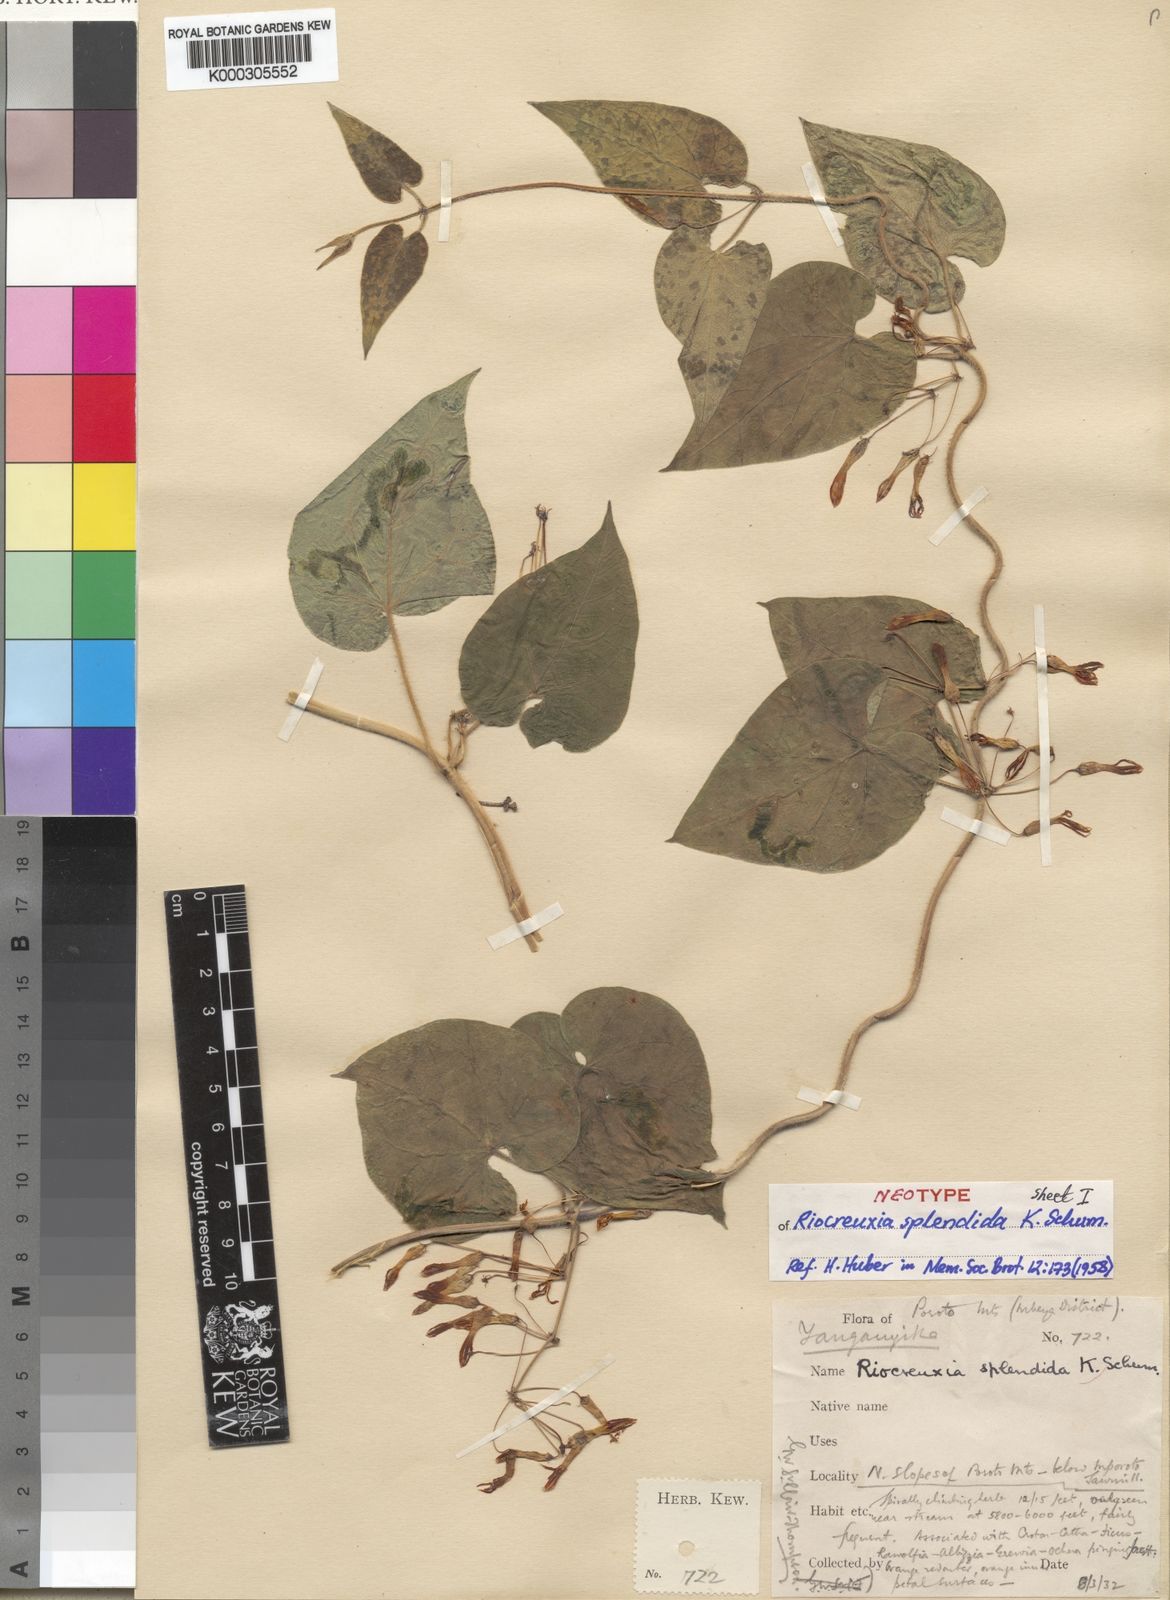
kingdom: Plantae
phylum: Tracheophyta
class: Magnoliopsida
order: Gentianales
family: Apocynaceae
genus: Riocreuxia
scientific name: Riocreuxia splendida
